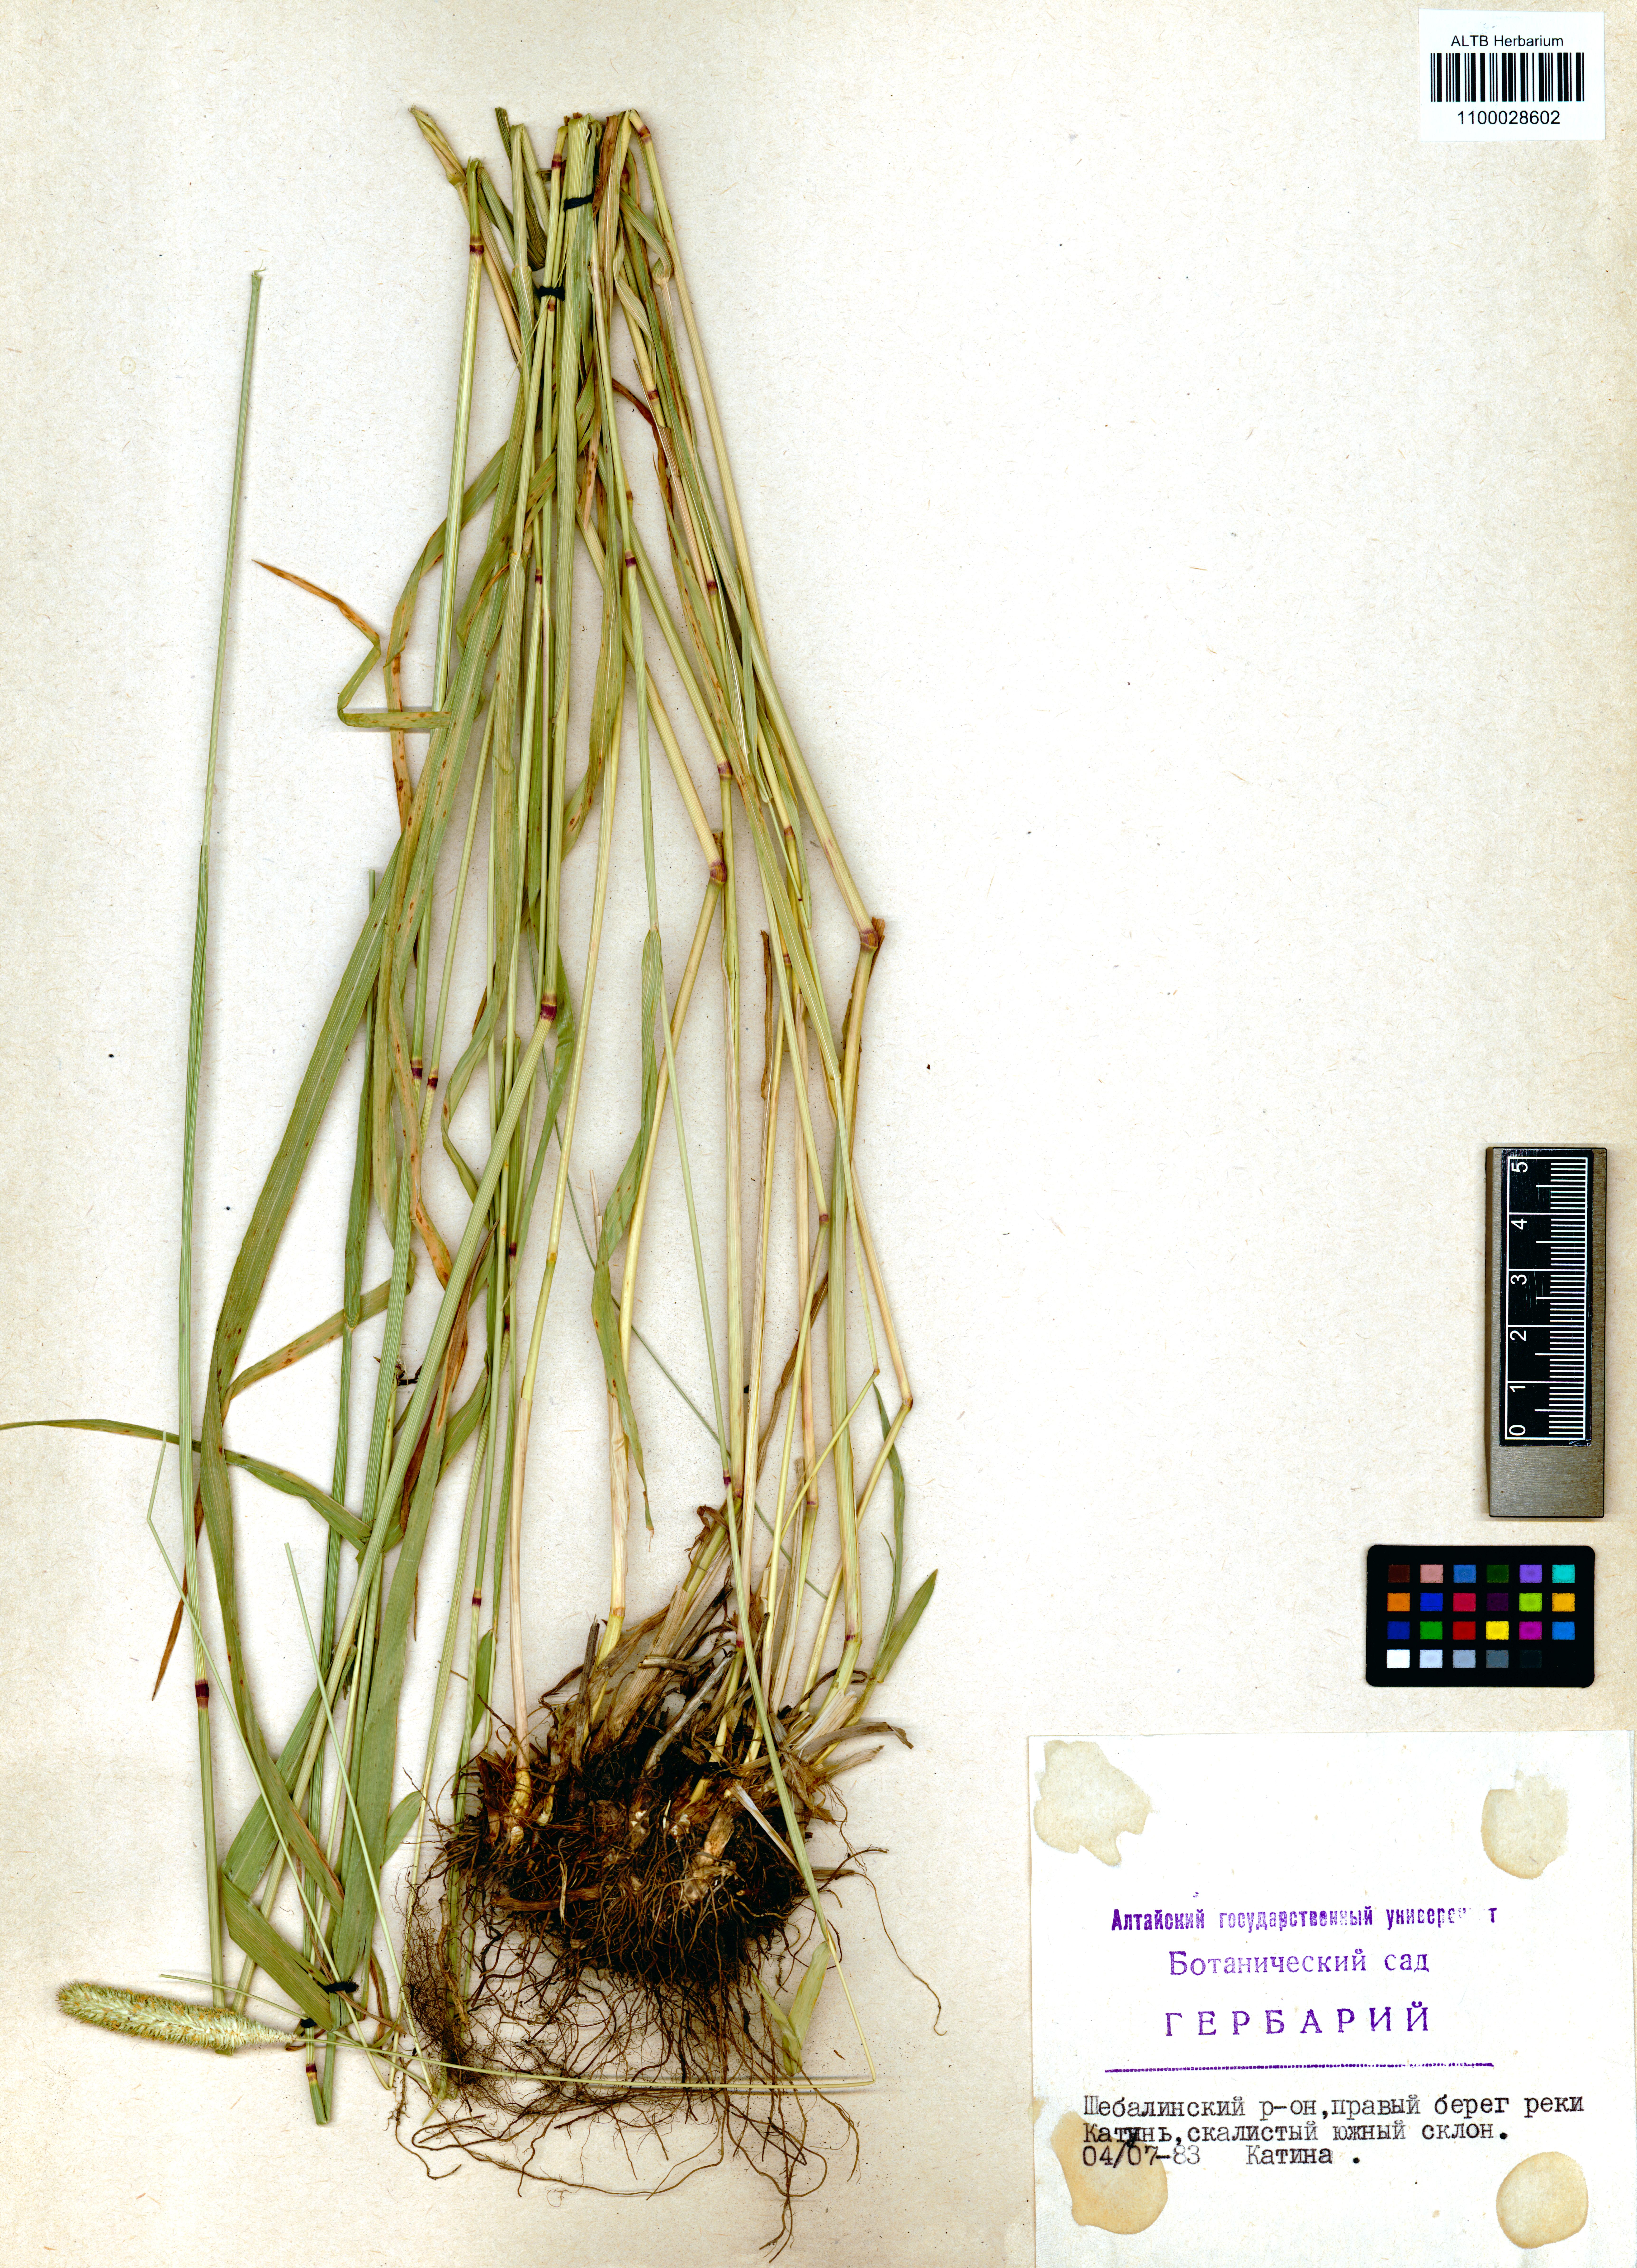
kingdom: Plantae
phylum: Tracheophyta
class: Liliopsida
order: Poales
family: Poaceae
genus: Phleum
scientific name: Phleum pratense
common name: Timothy grass
